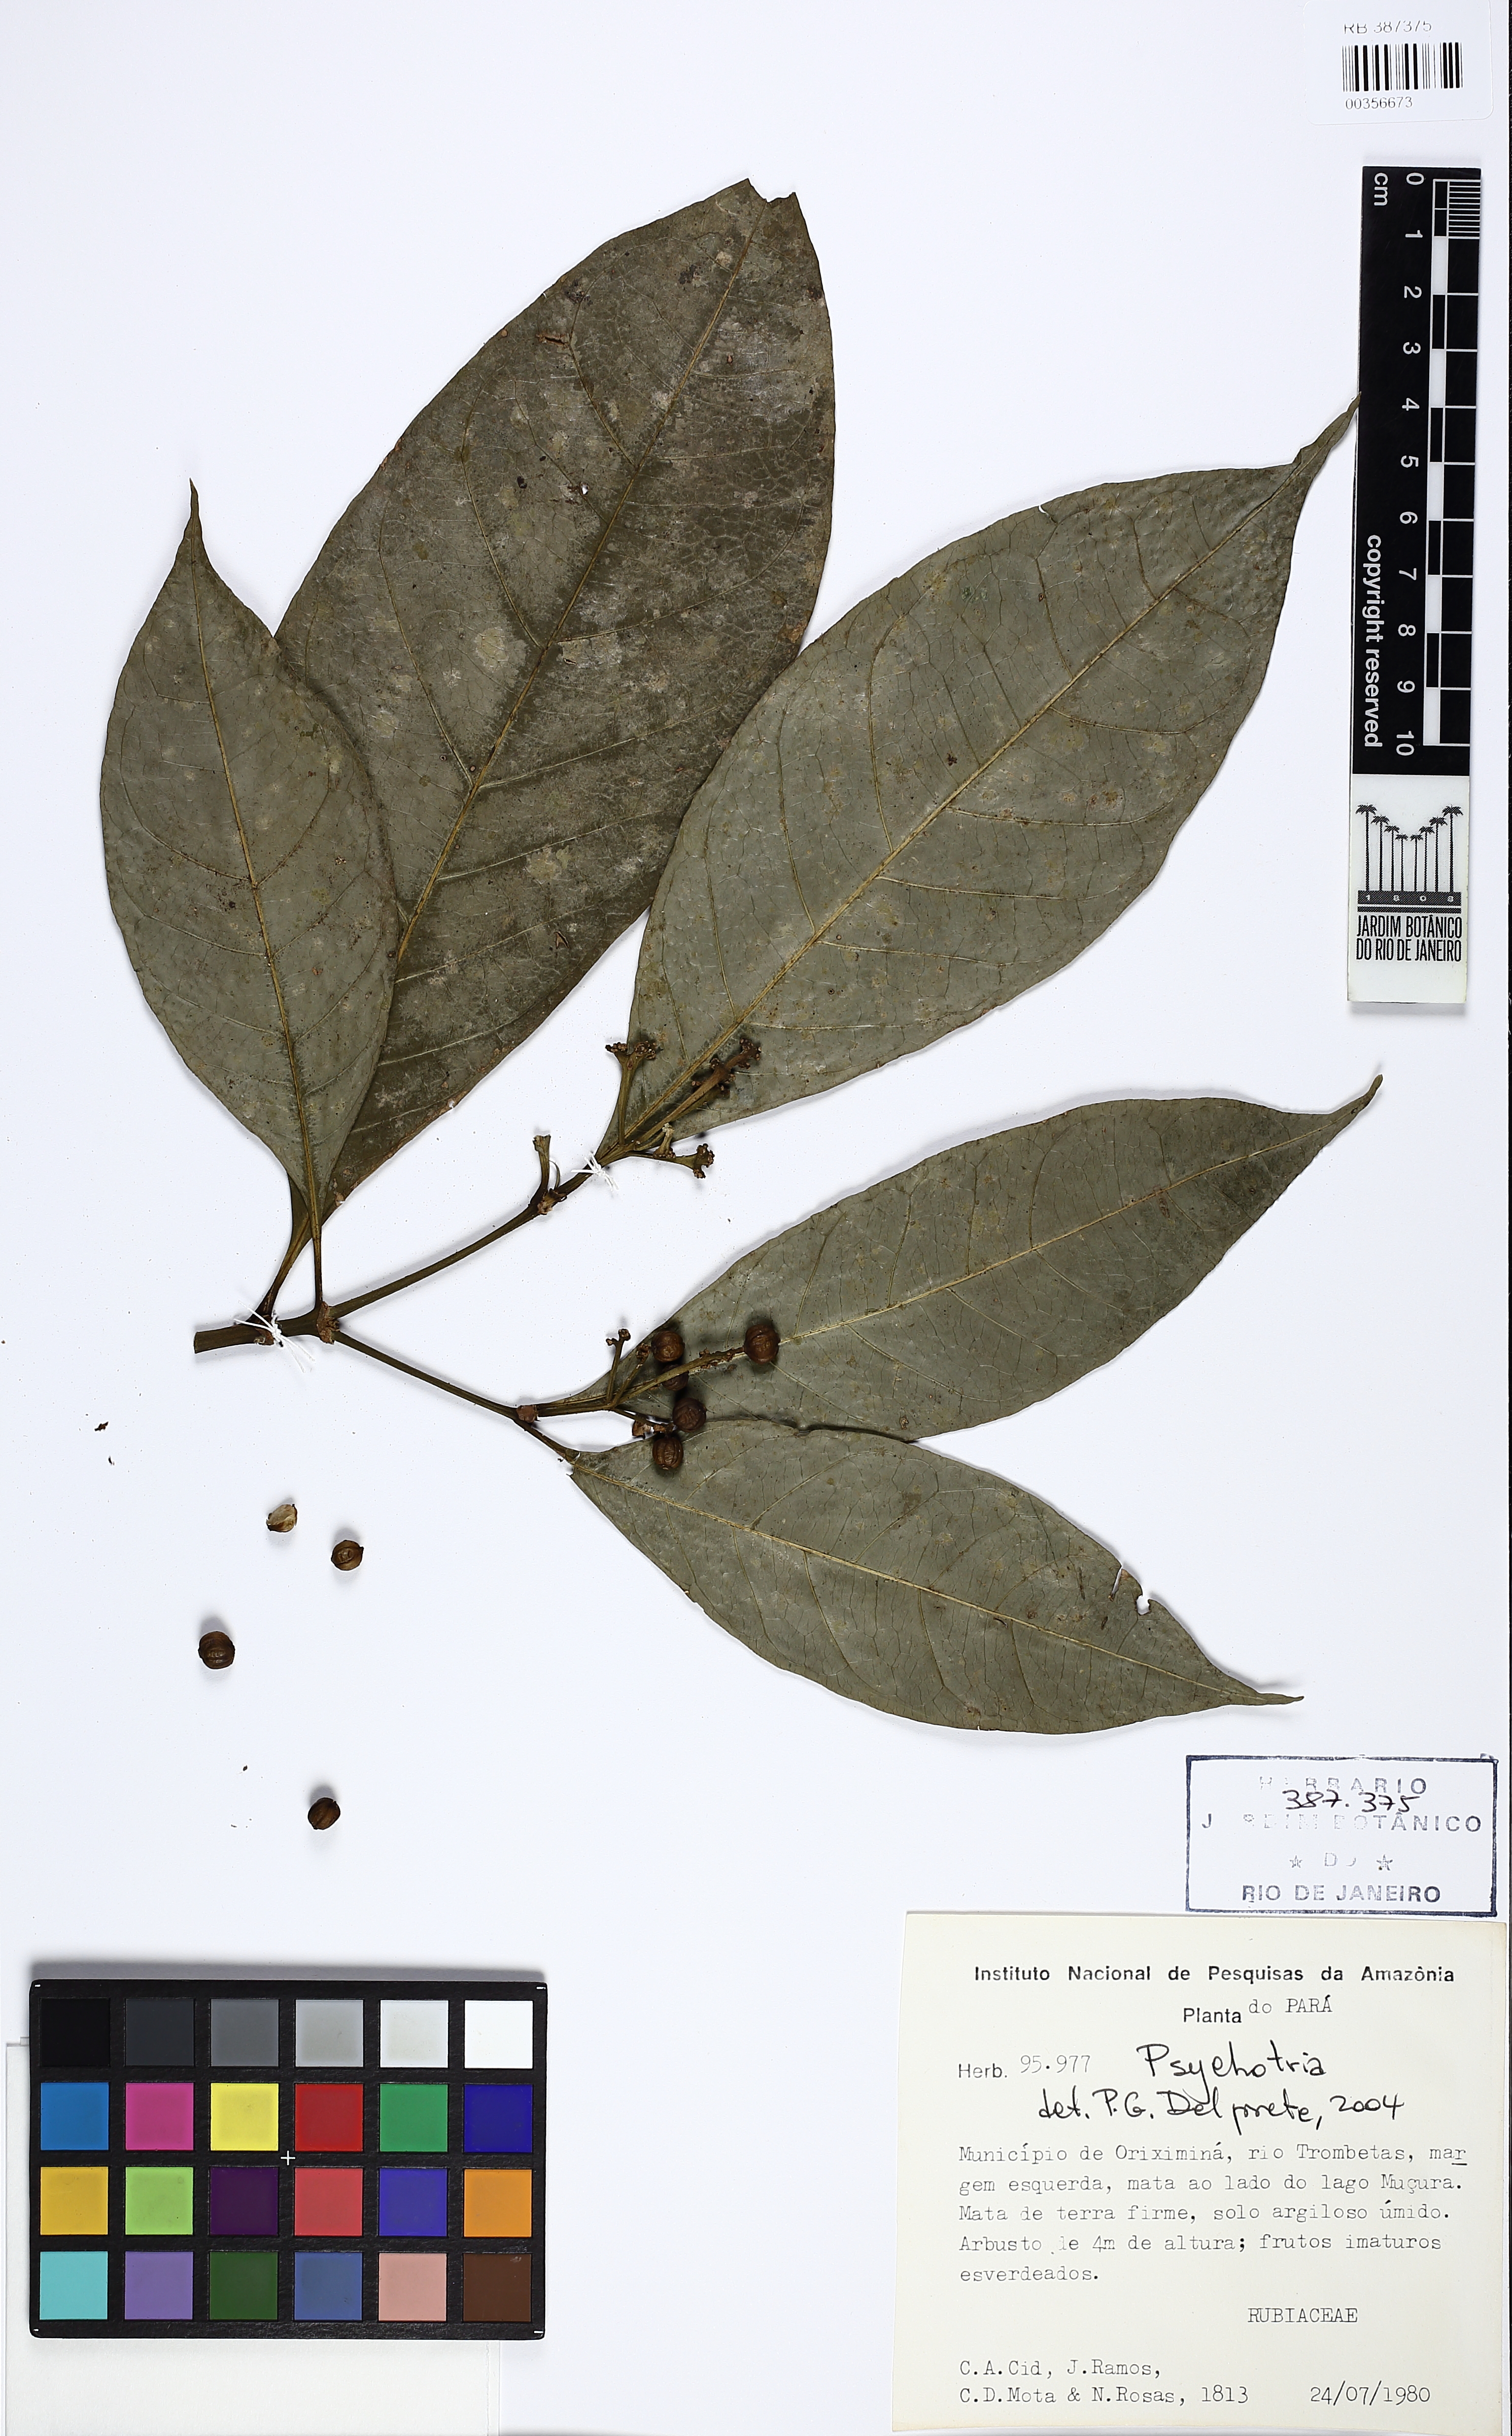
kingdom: Plantae
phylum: Tracheophyta
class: Magnoliopsida
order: Gentianales
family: Rubiaceae
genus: Psychotria
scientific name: Psychotria
